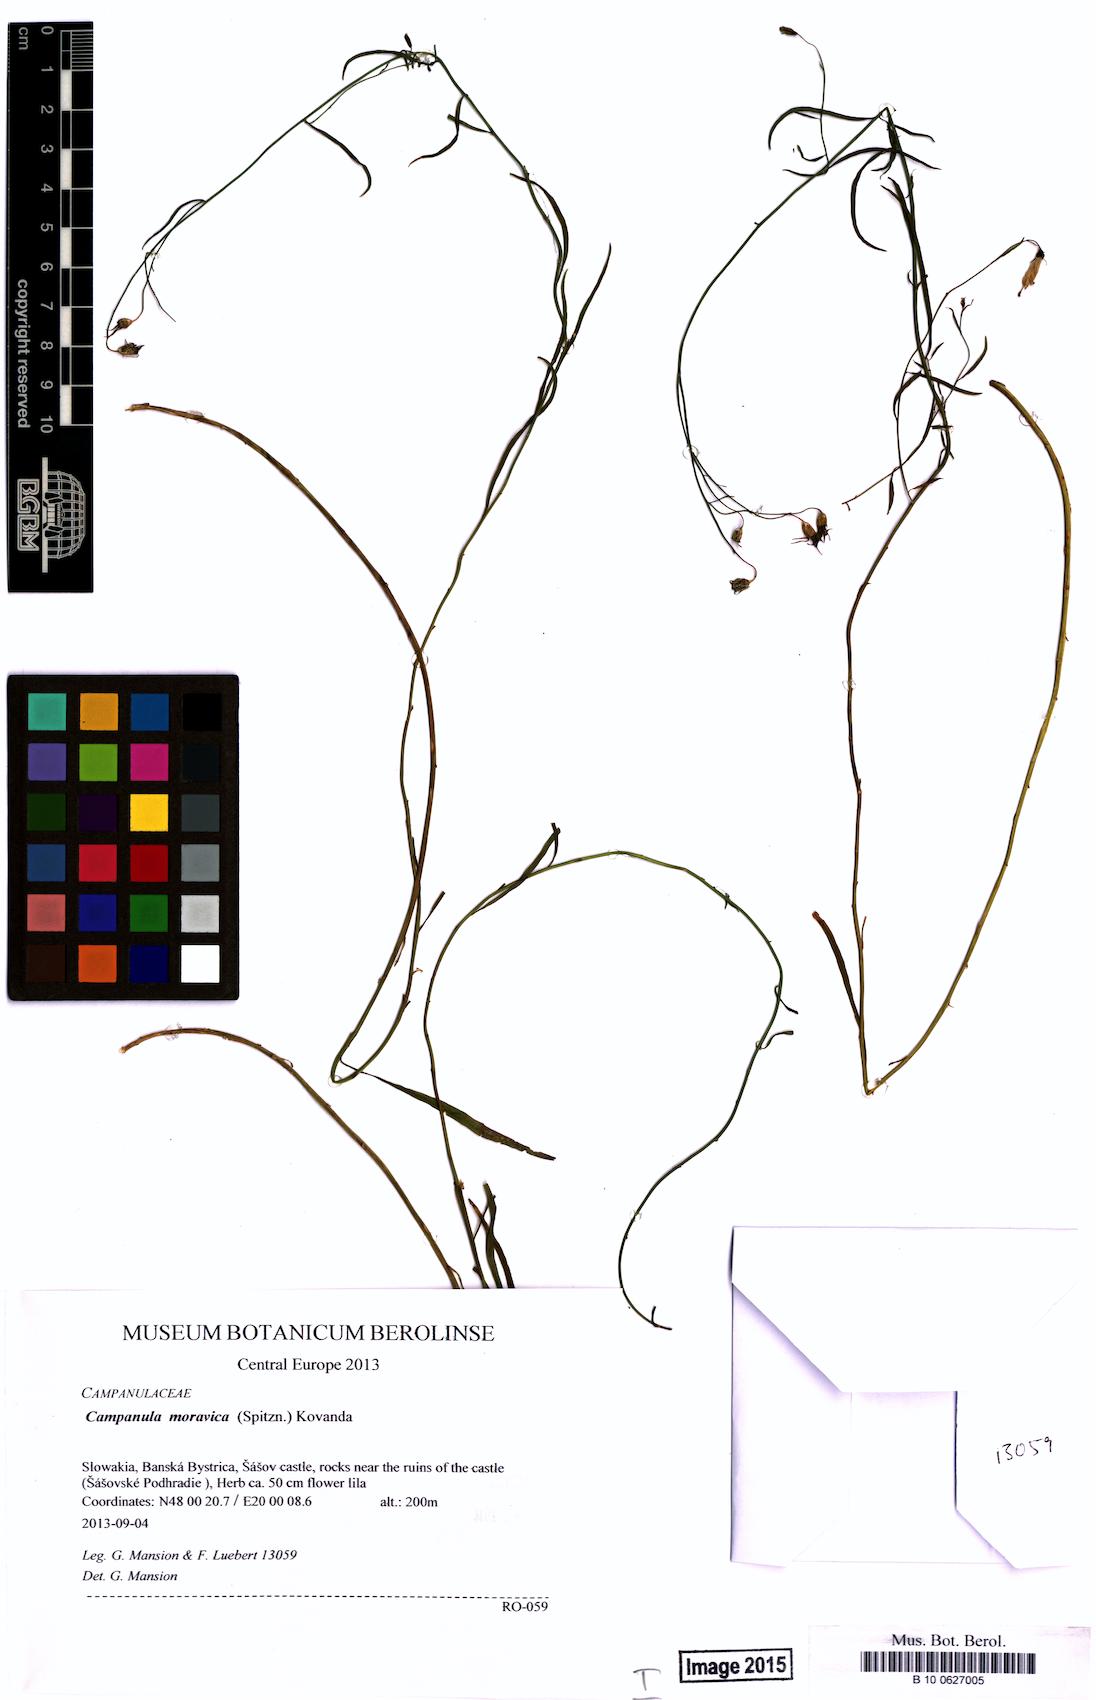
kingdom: Plantae
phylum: Tracheophyta
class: Magnoliopsida
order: Asterales
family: Campanulaceae
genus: Campanula
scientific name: Campanula moravica
